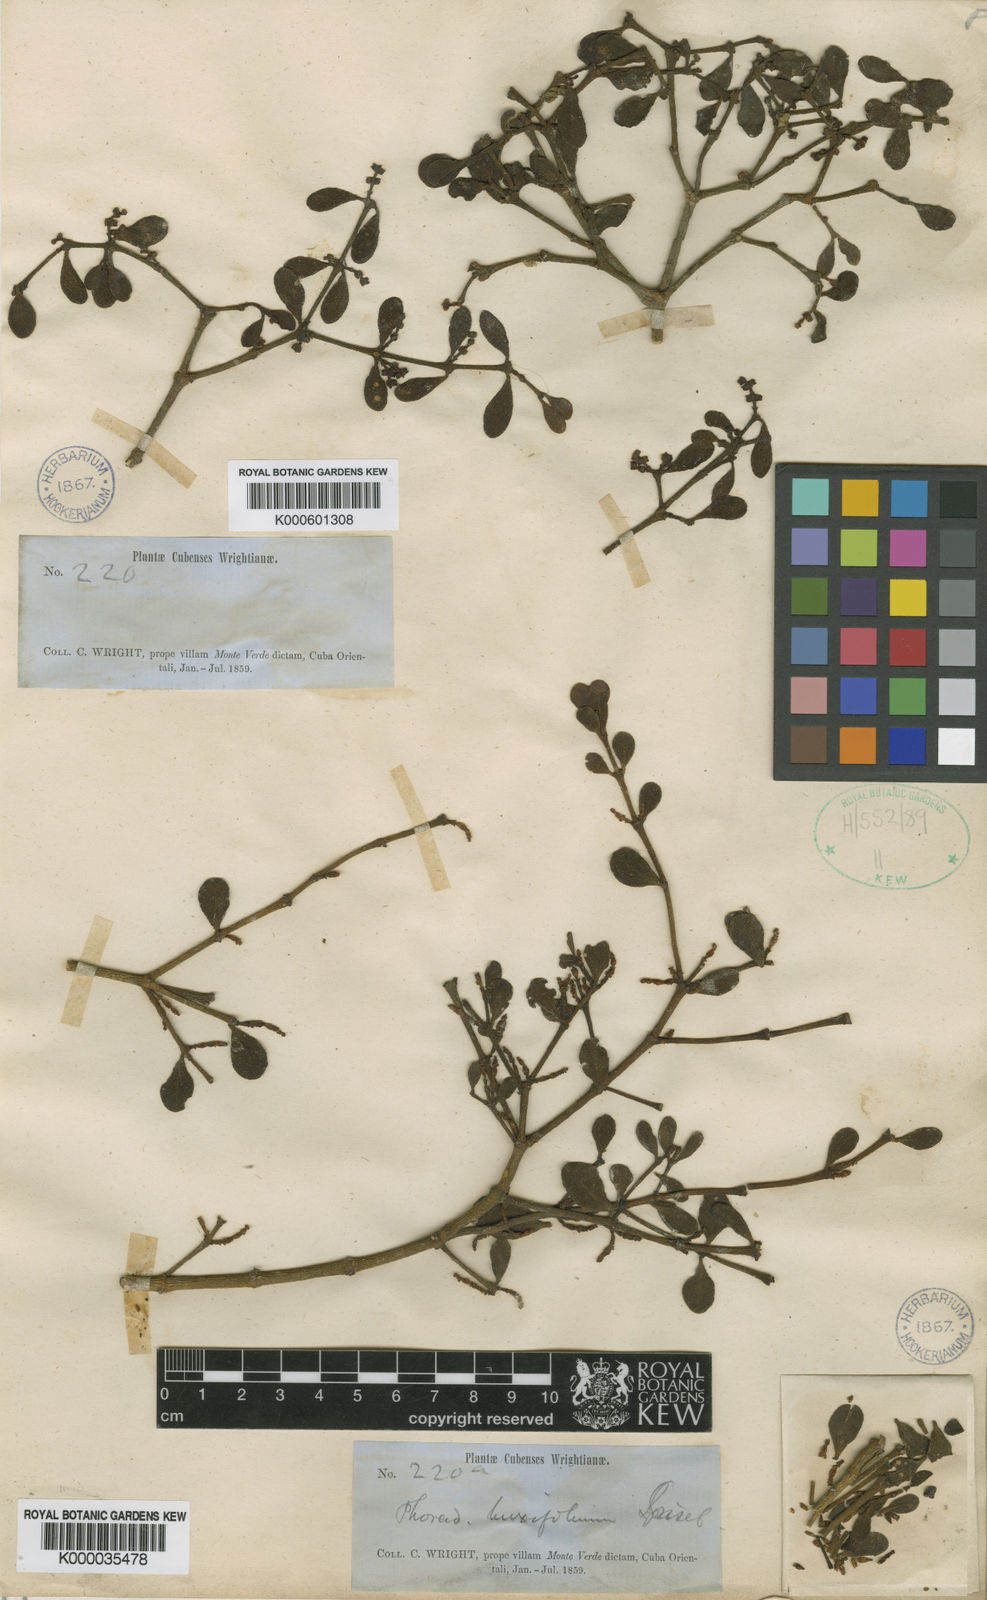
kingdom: Plantae
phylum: Tracheophyta
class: Magnoliopsida
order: Santalales
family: Viscaceae
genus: Dendrophthora
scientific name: Dendrophthora buxifolia
